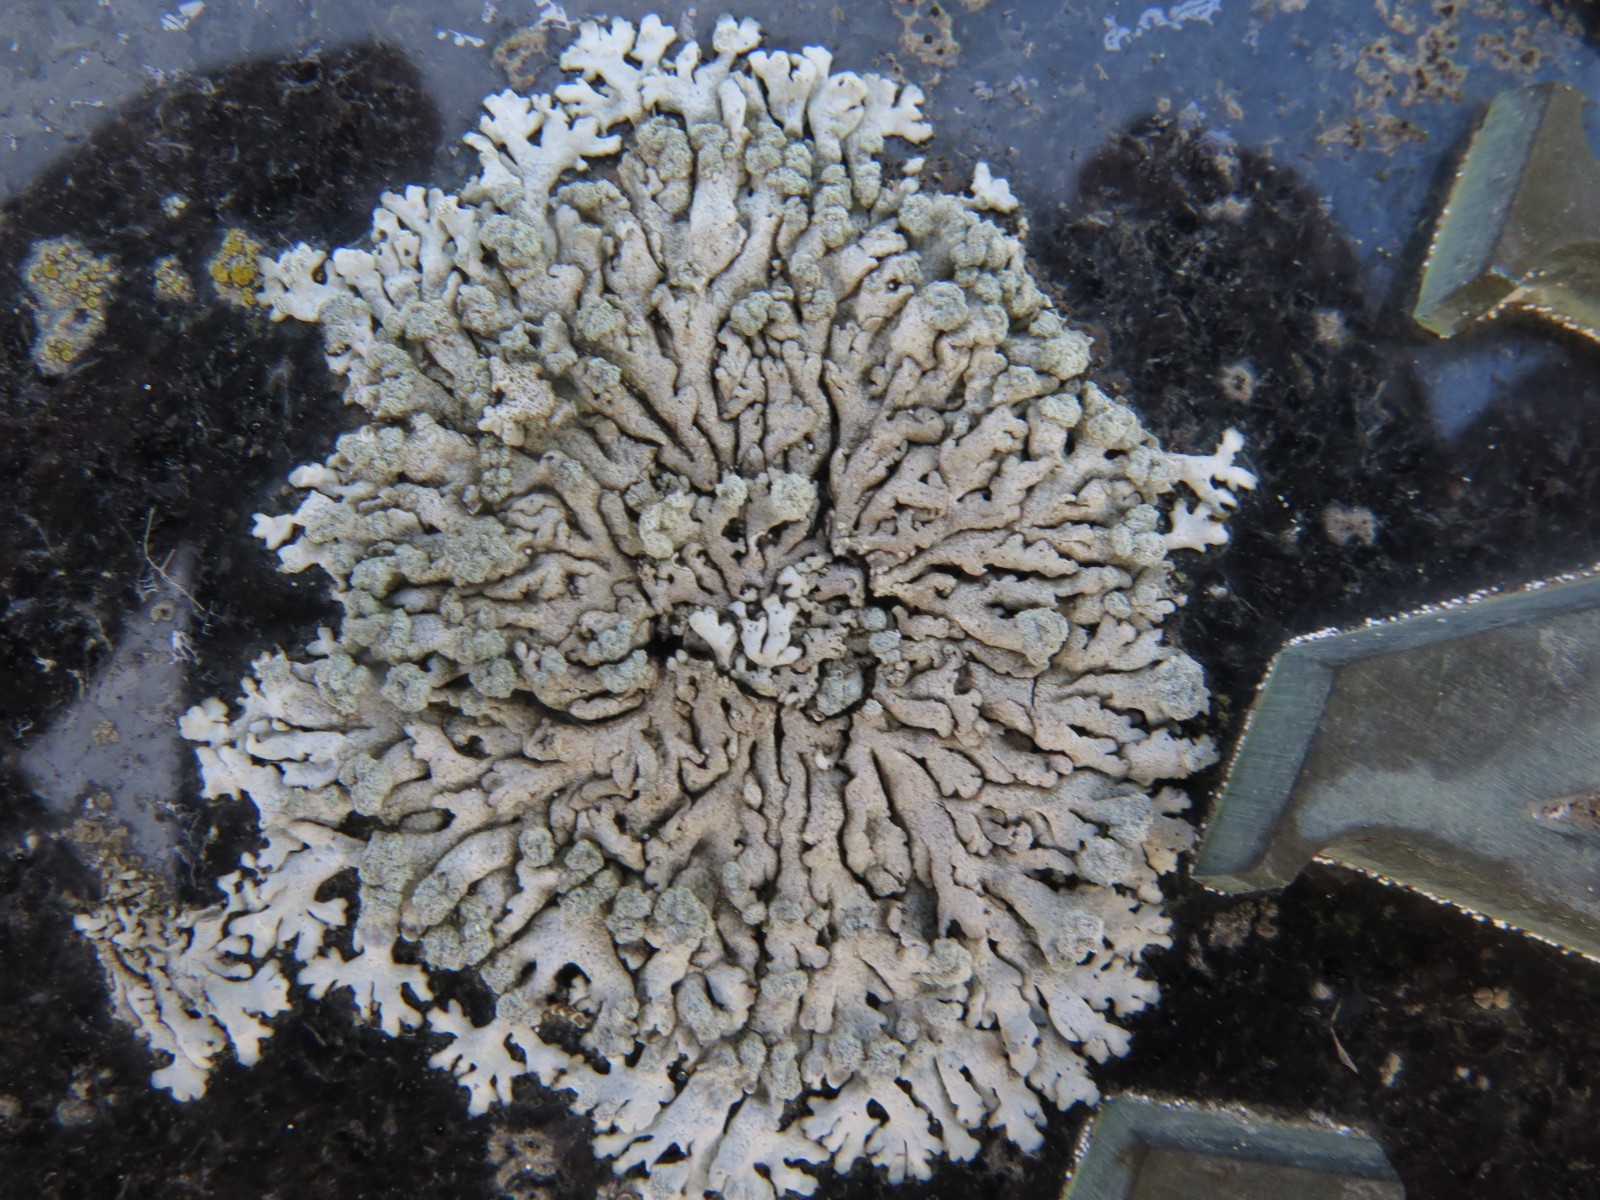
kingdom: Fungi
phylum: Ascomycota
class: Lecanoromycetes
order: Caliciales
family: Physciaceae
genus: Physcia
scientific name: Physcia caesia
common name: blågrå rosetlav
